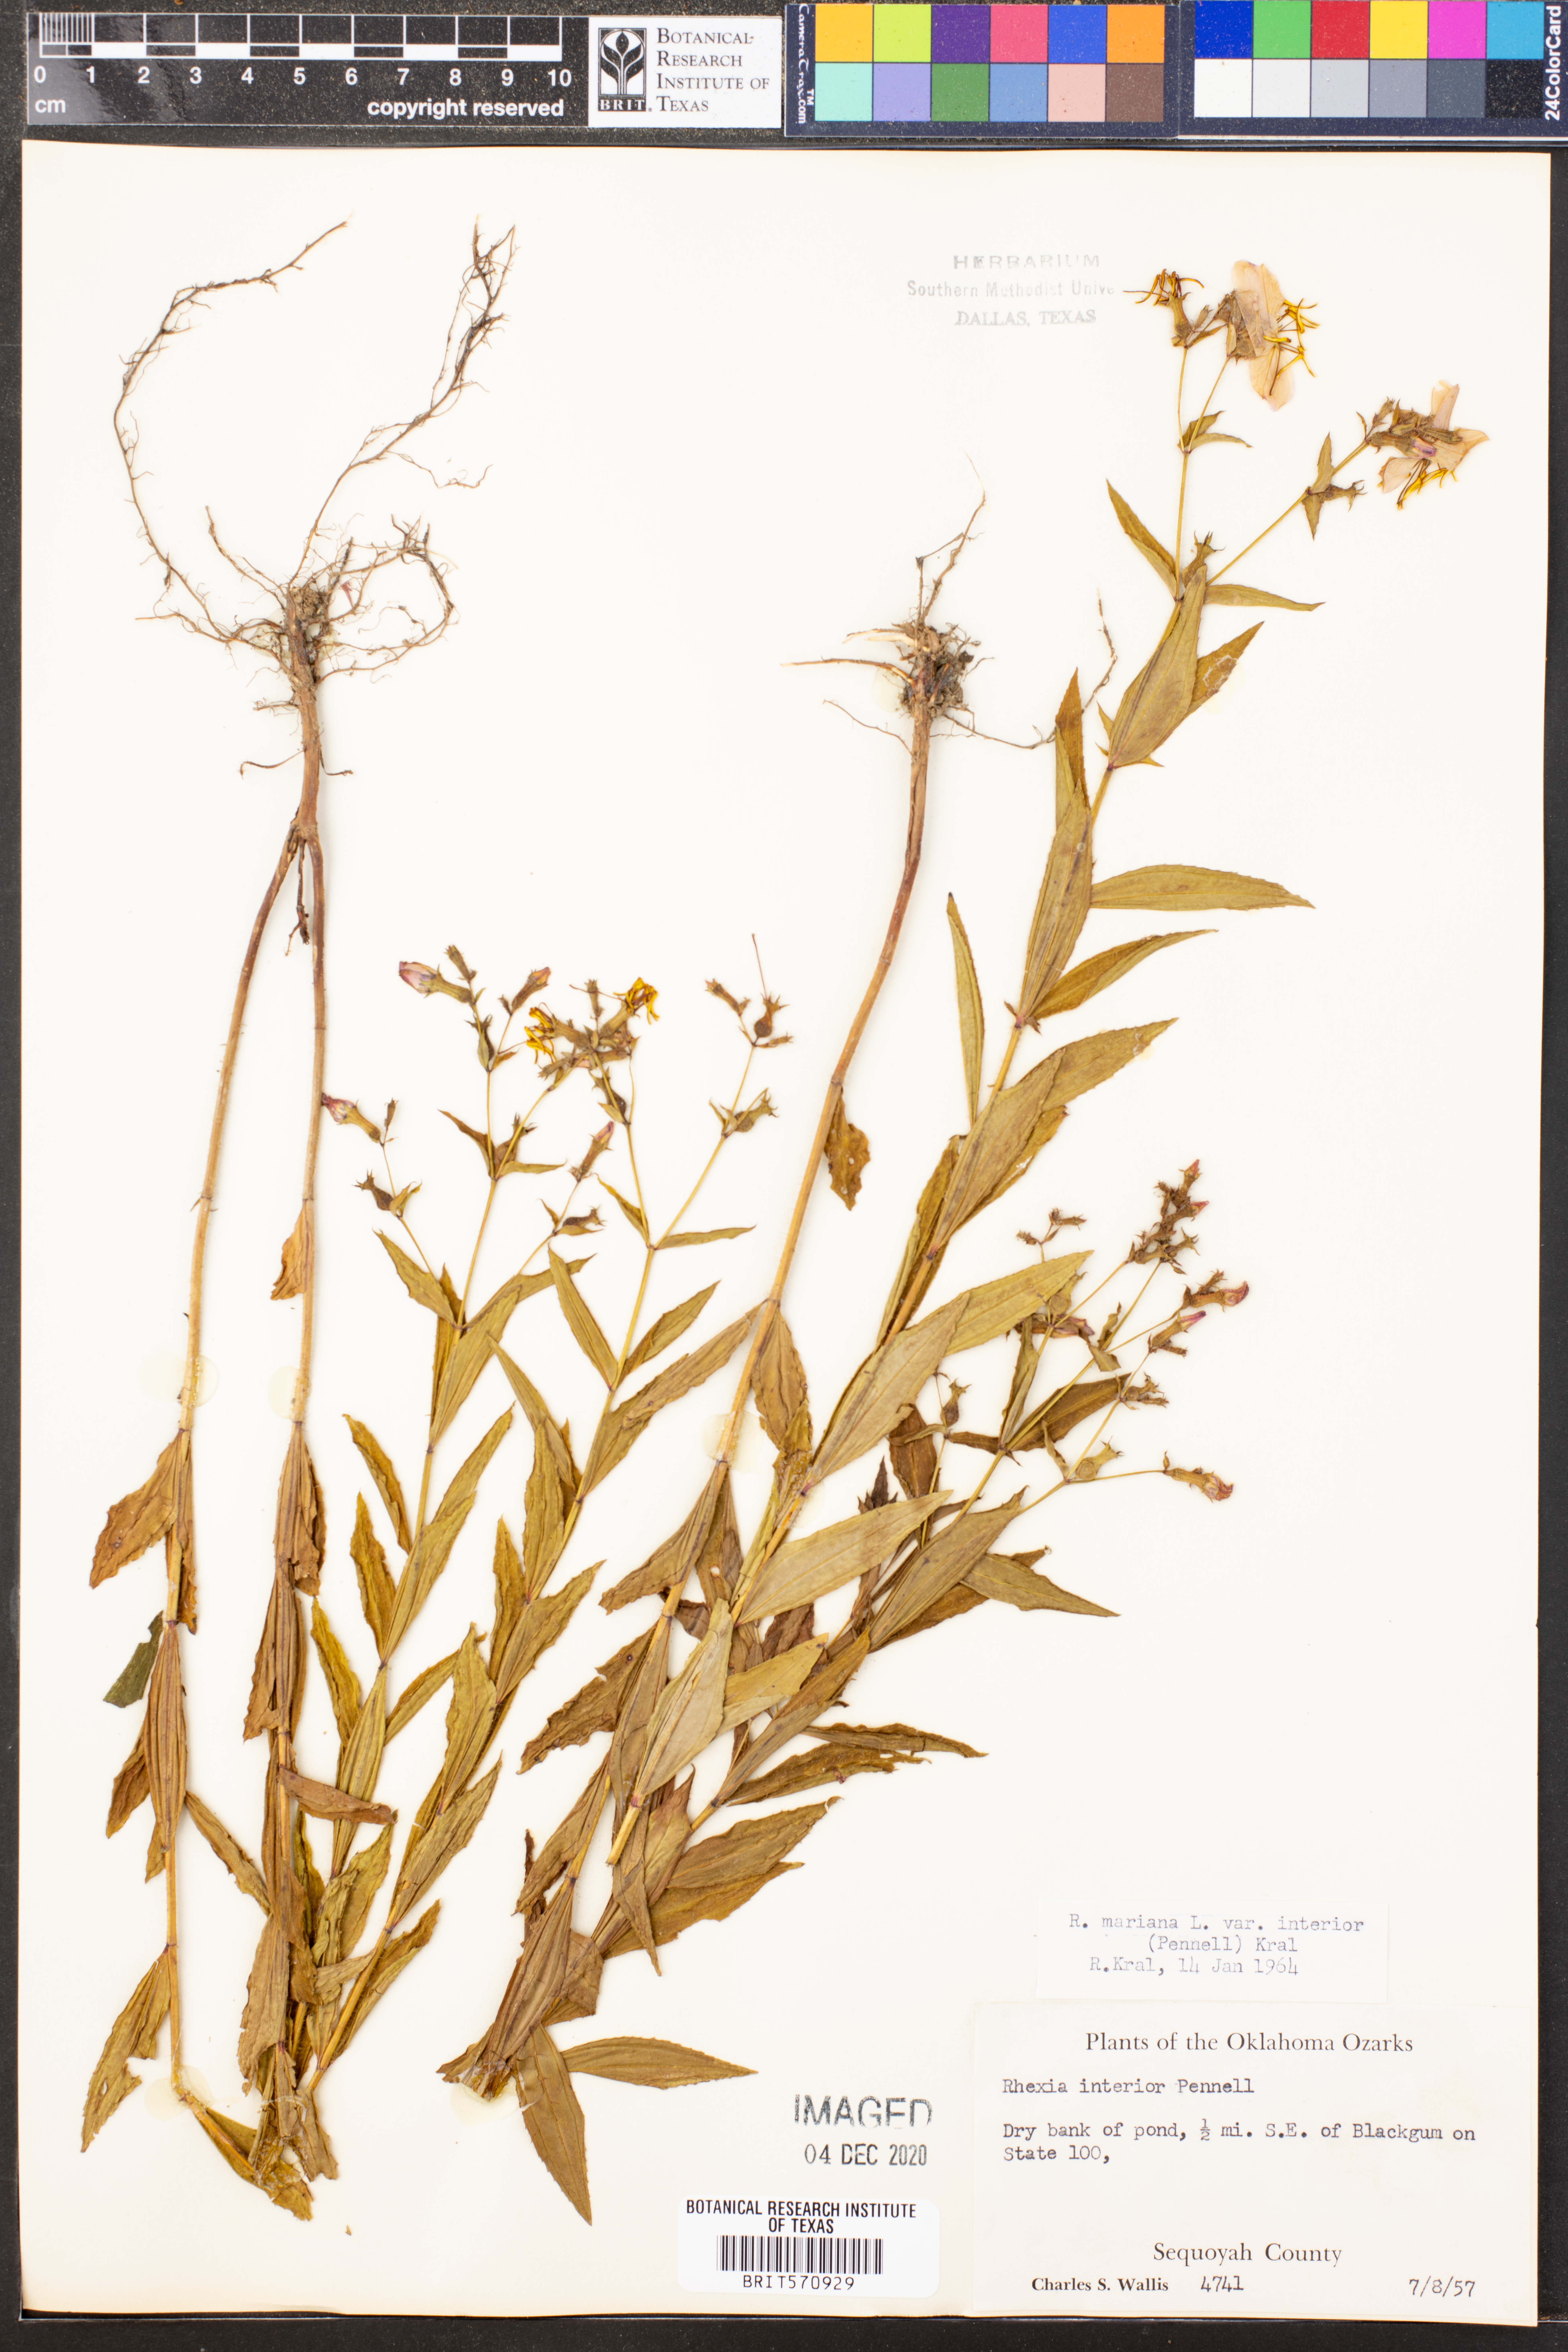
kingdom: Plantae
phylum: Tracheophyta
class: Magnoliopsida
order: Myrtales
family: Melastomataceae
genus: Rhexia
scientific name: Rhexia interior
